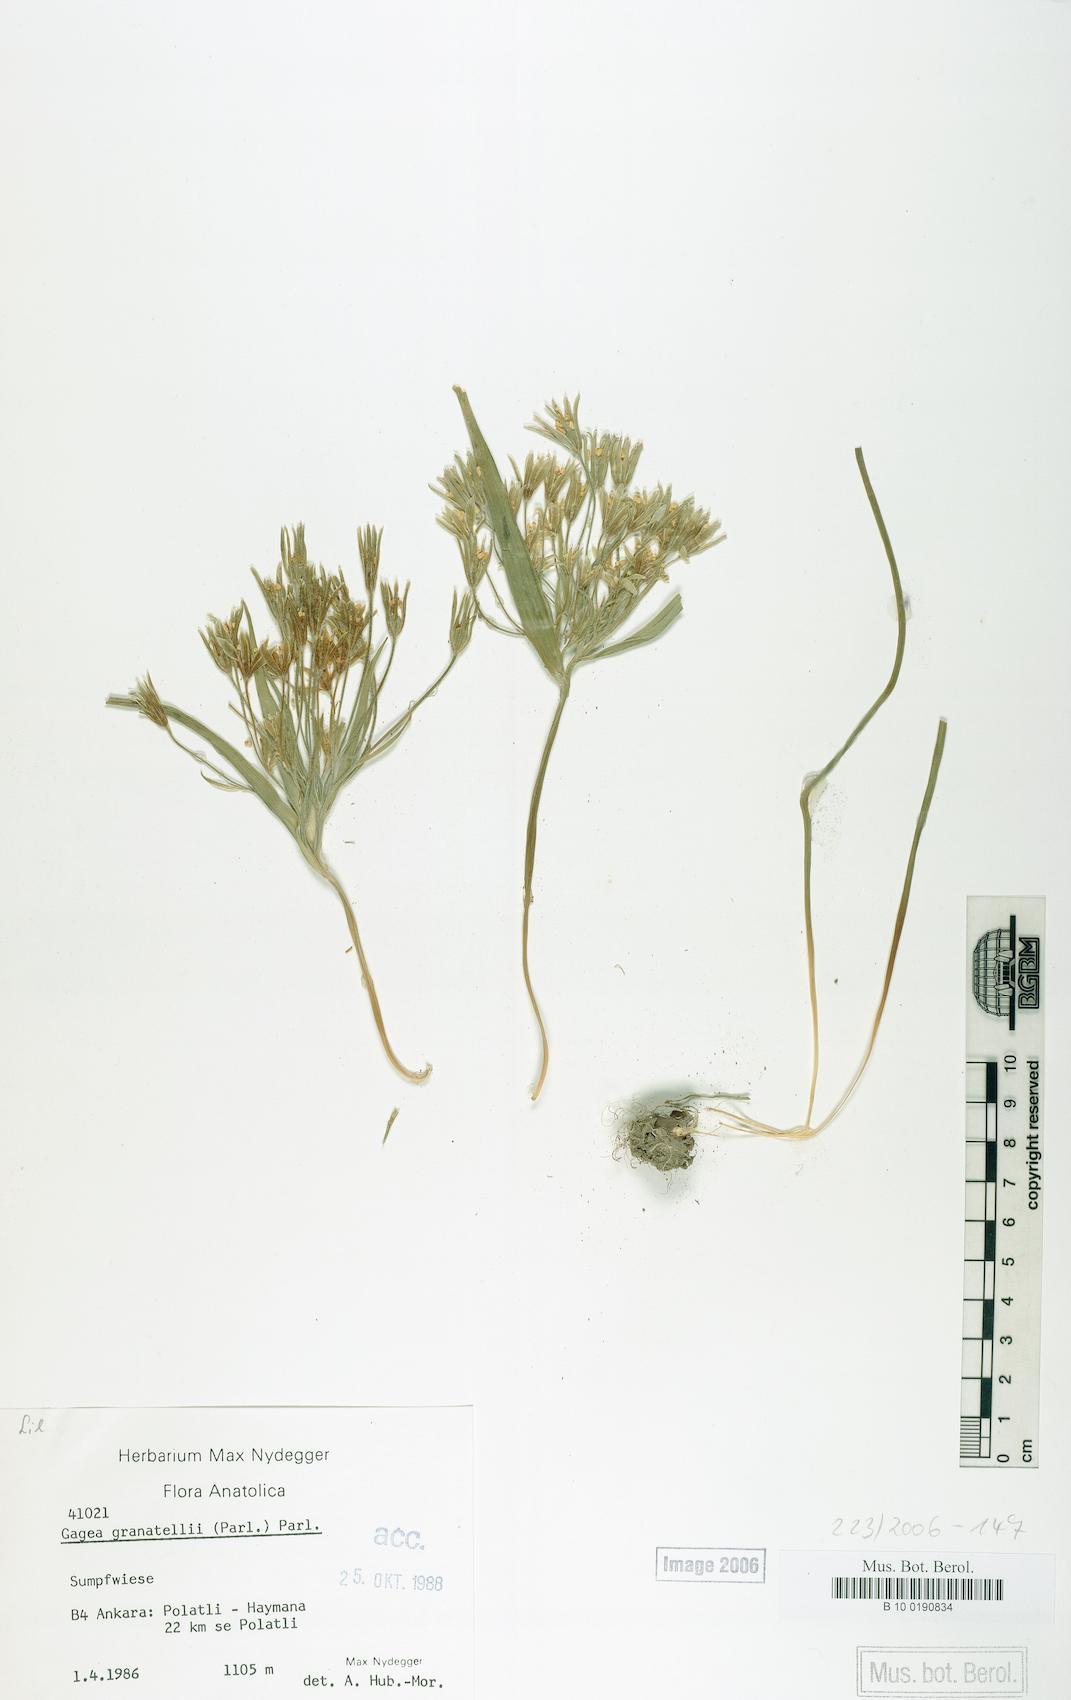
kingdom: Plantae
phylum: Tracheophyta
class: Liliopsida
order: Liliales
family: Liliaceae
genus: Gagea
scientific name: Gagea granatellii
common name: Granatelli’s gagea
